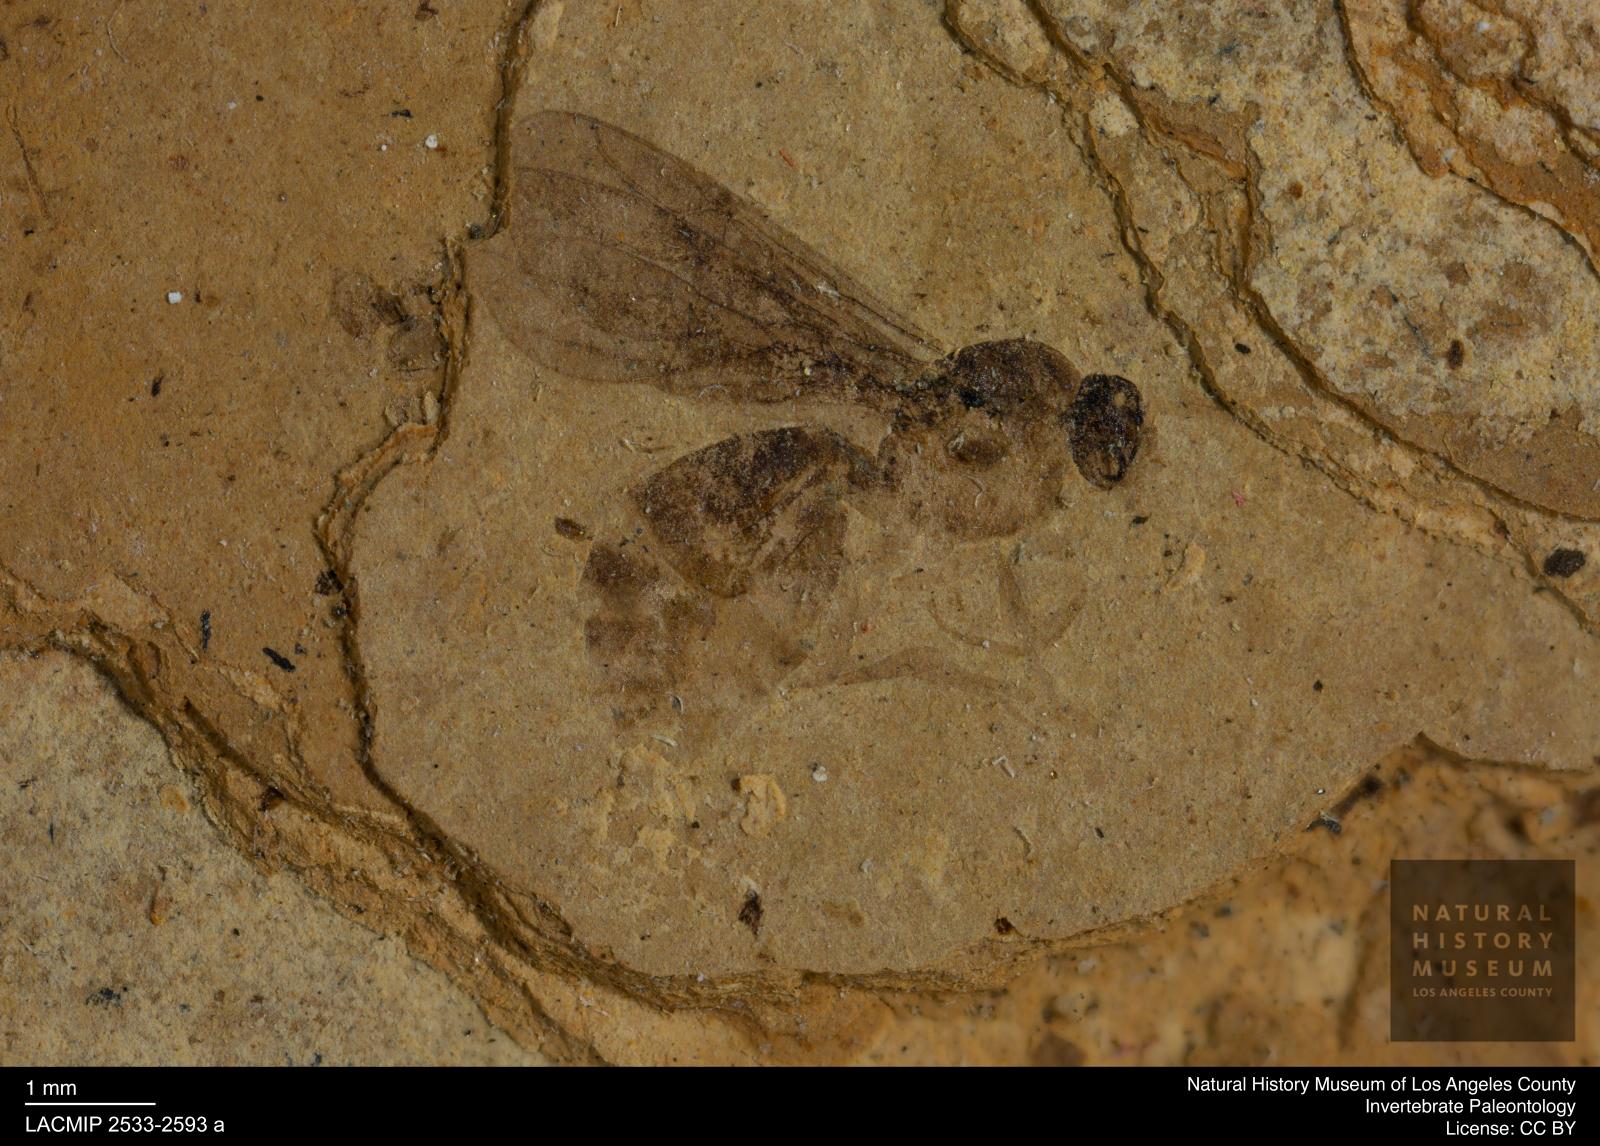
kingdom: Animalia
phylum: Arthropoda
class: Insecta
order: Hymenoptera
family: Formicidae
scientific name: Formicidae
